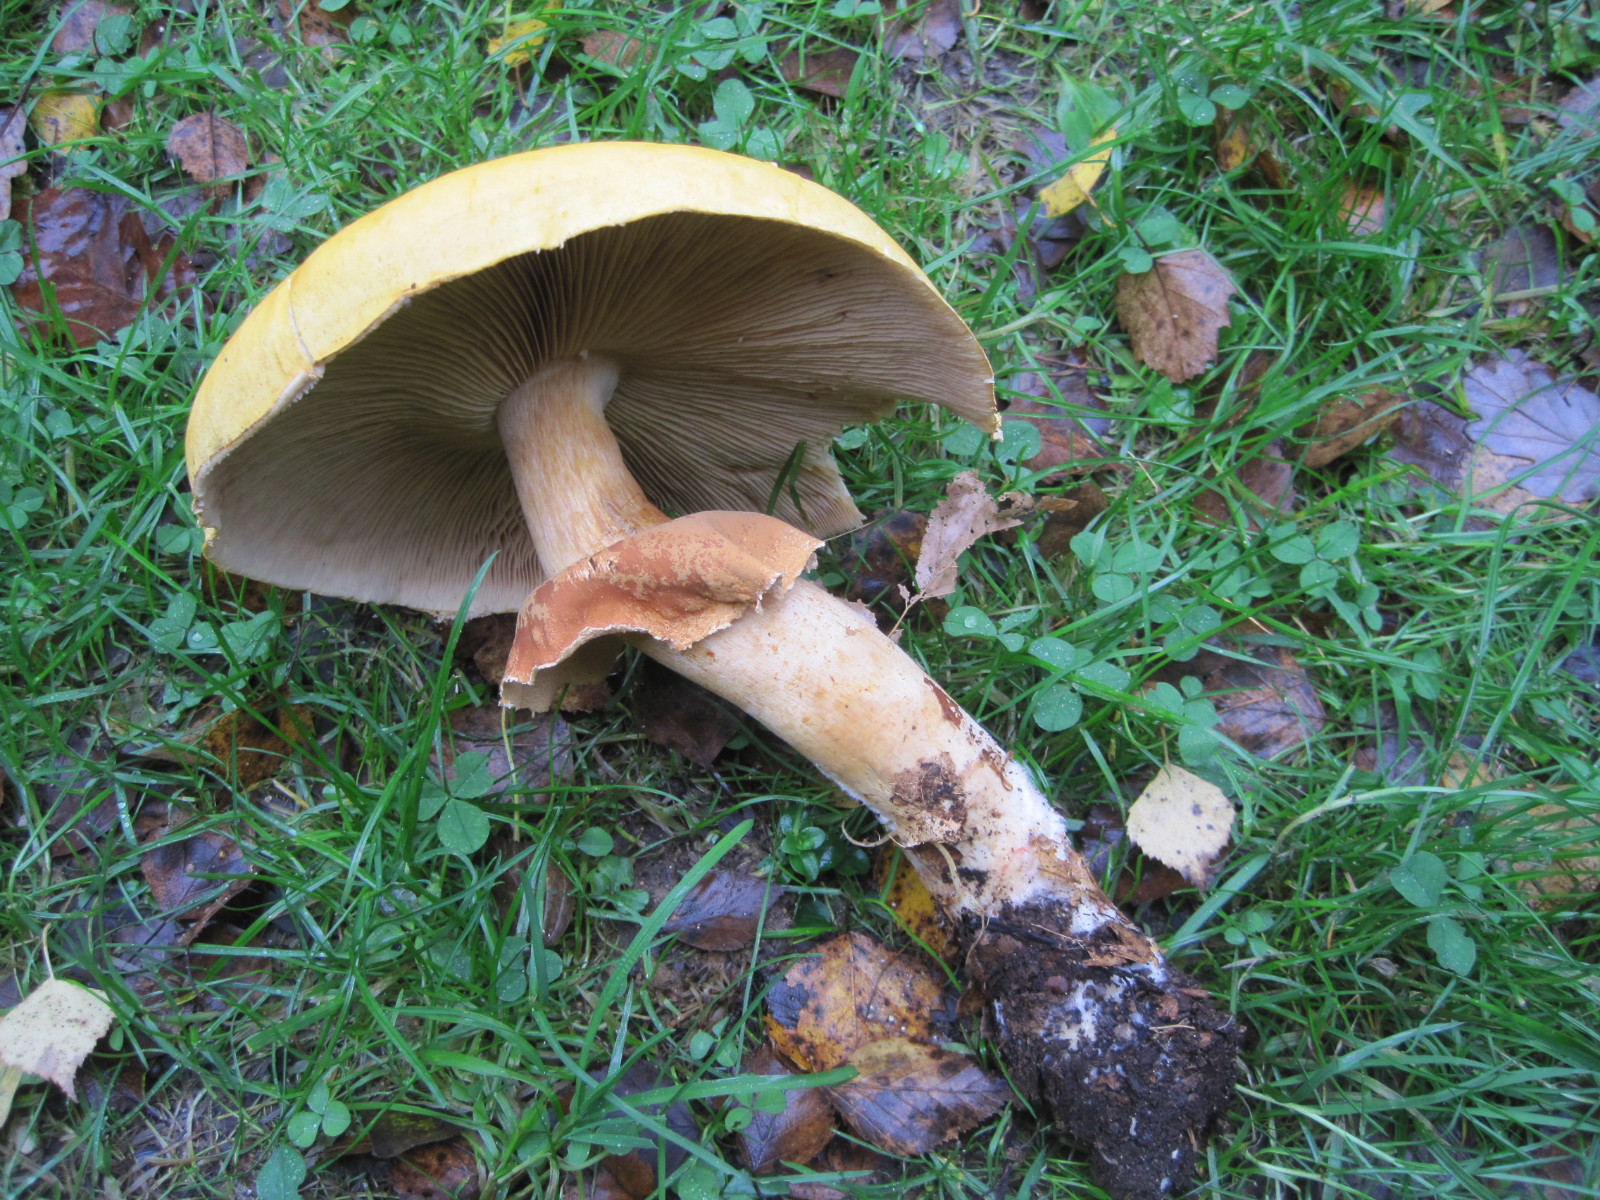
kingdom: Fungi
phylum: Basidiomycota
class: Agaricomycetes
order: Agaricales
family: Tricholomataceae
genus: Phaeolepiota
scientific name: Phaeolepiota aurea
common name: gyldenhat
